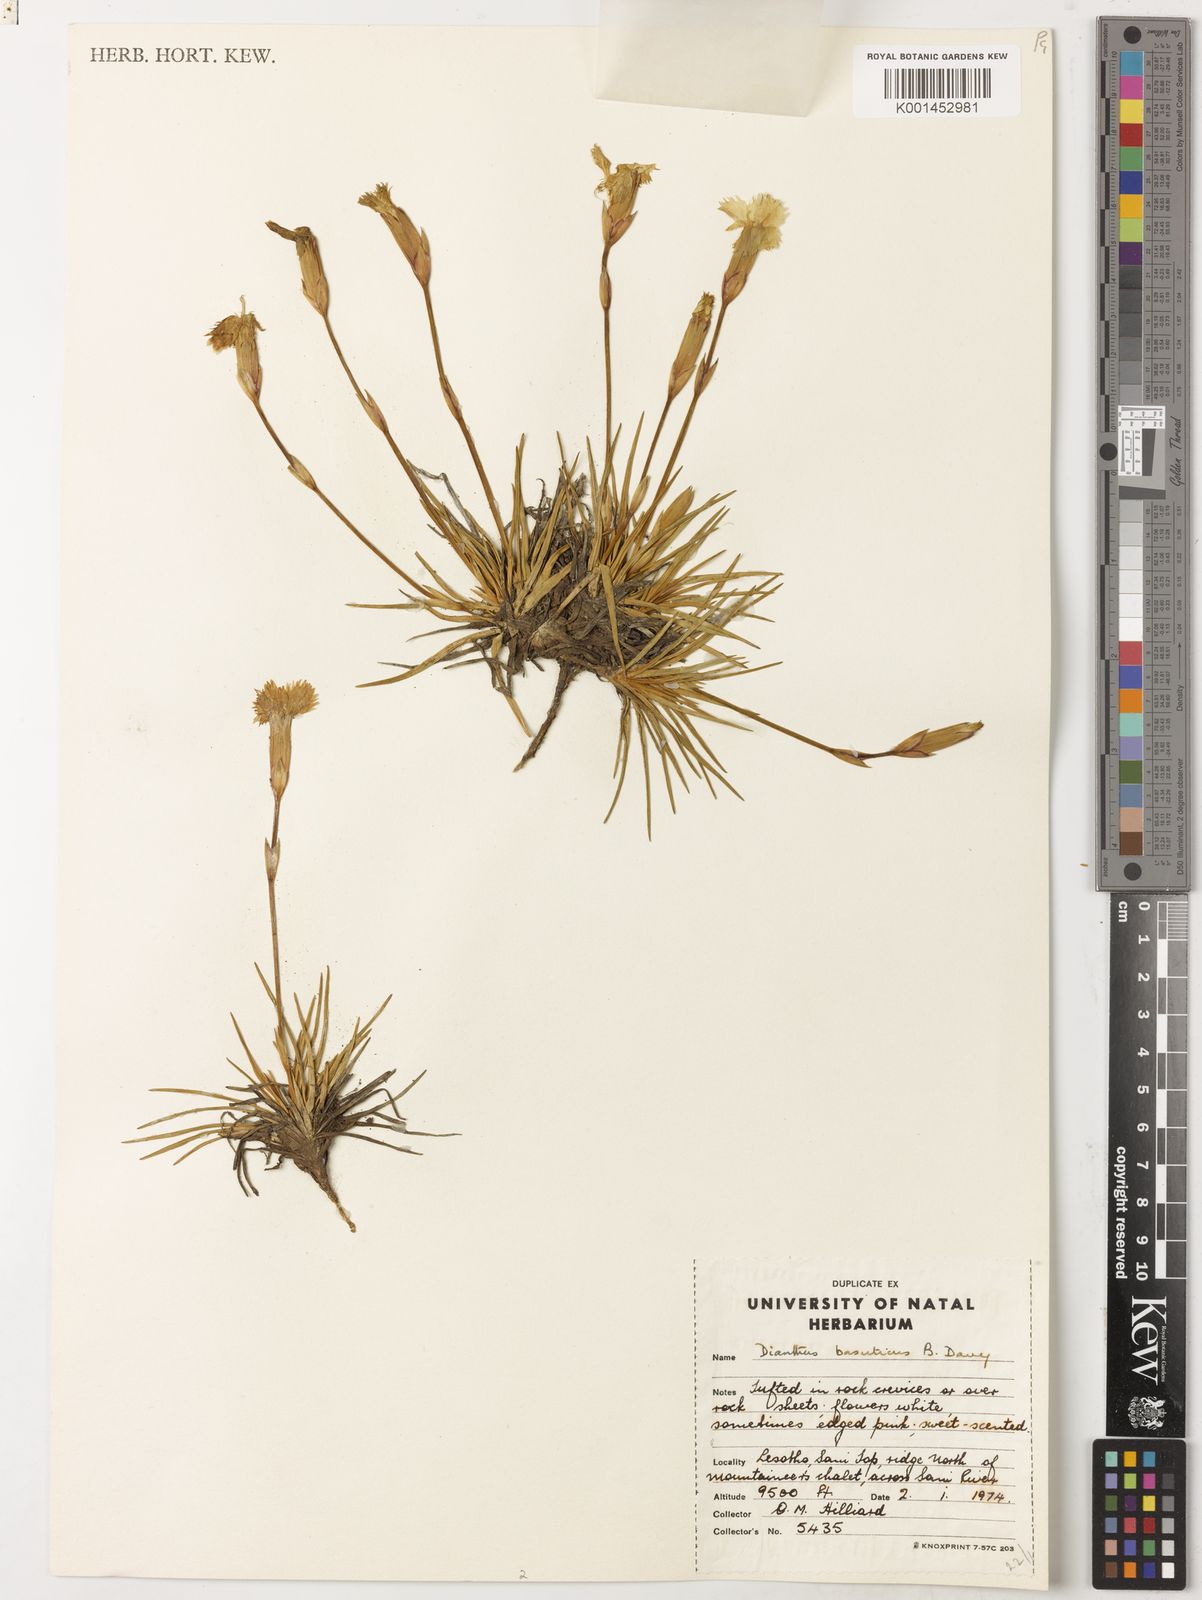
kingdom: Plantae
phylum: Tracheophyta
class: Magnoliopsida
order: Caryophyllales
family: Caryophyllaceae
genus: Dianthus
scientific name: Dianthus basuticus
